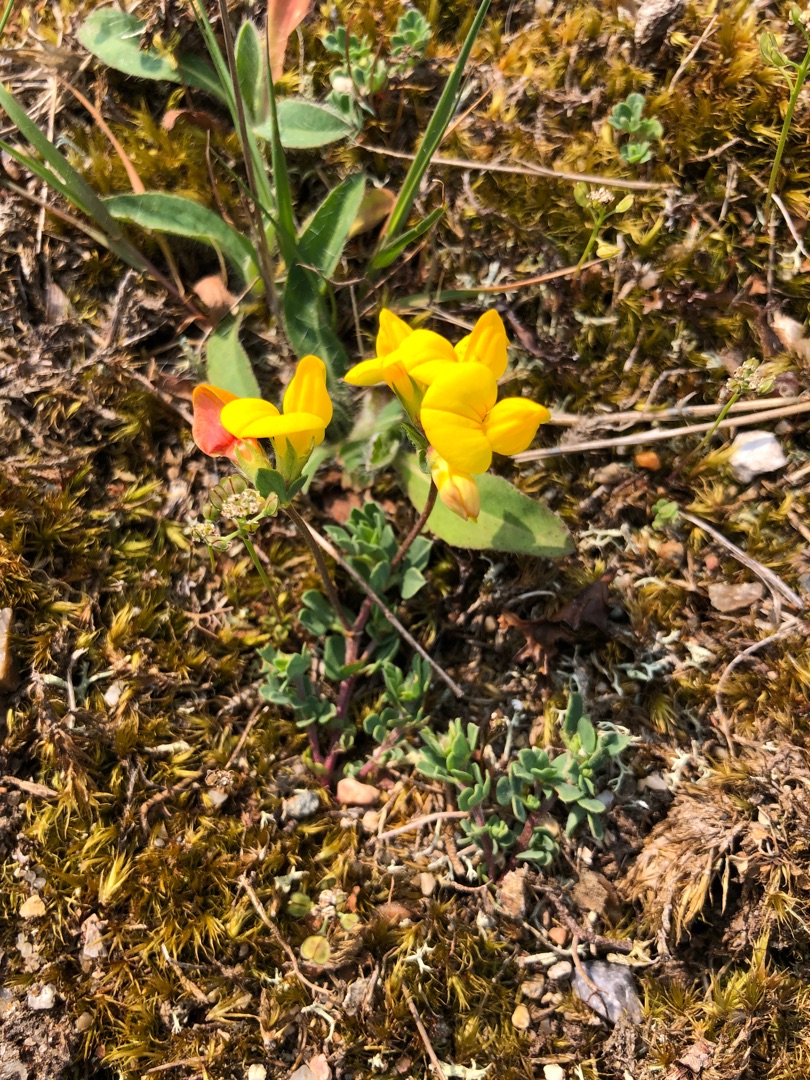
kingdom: Plantae
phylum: Tracheophyta
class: Magnoliopsida
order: Fabales
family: Fabaceae
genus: Lotus
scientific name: Lotus corniculatus
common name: Almindelig kællingetand
